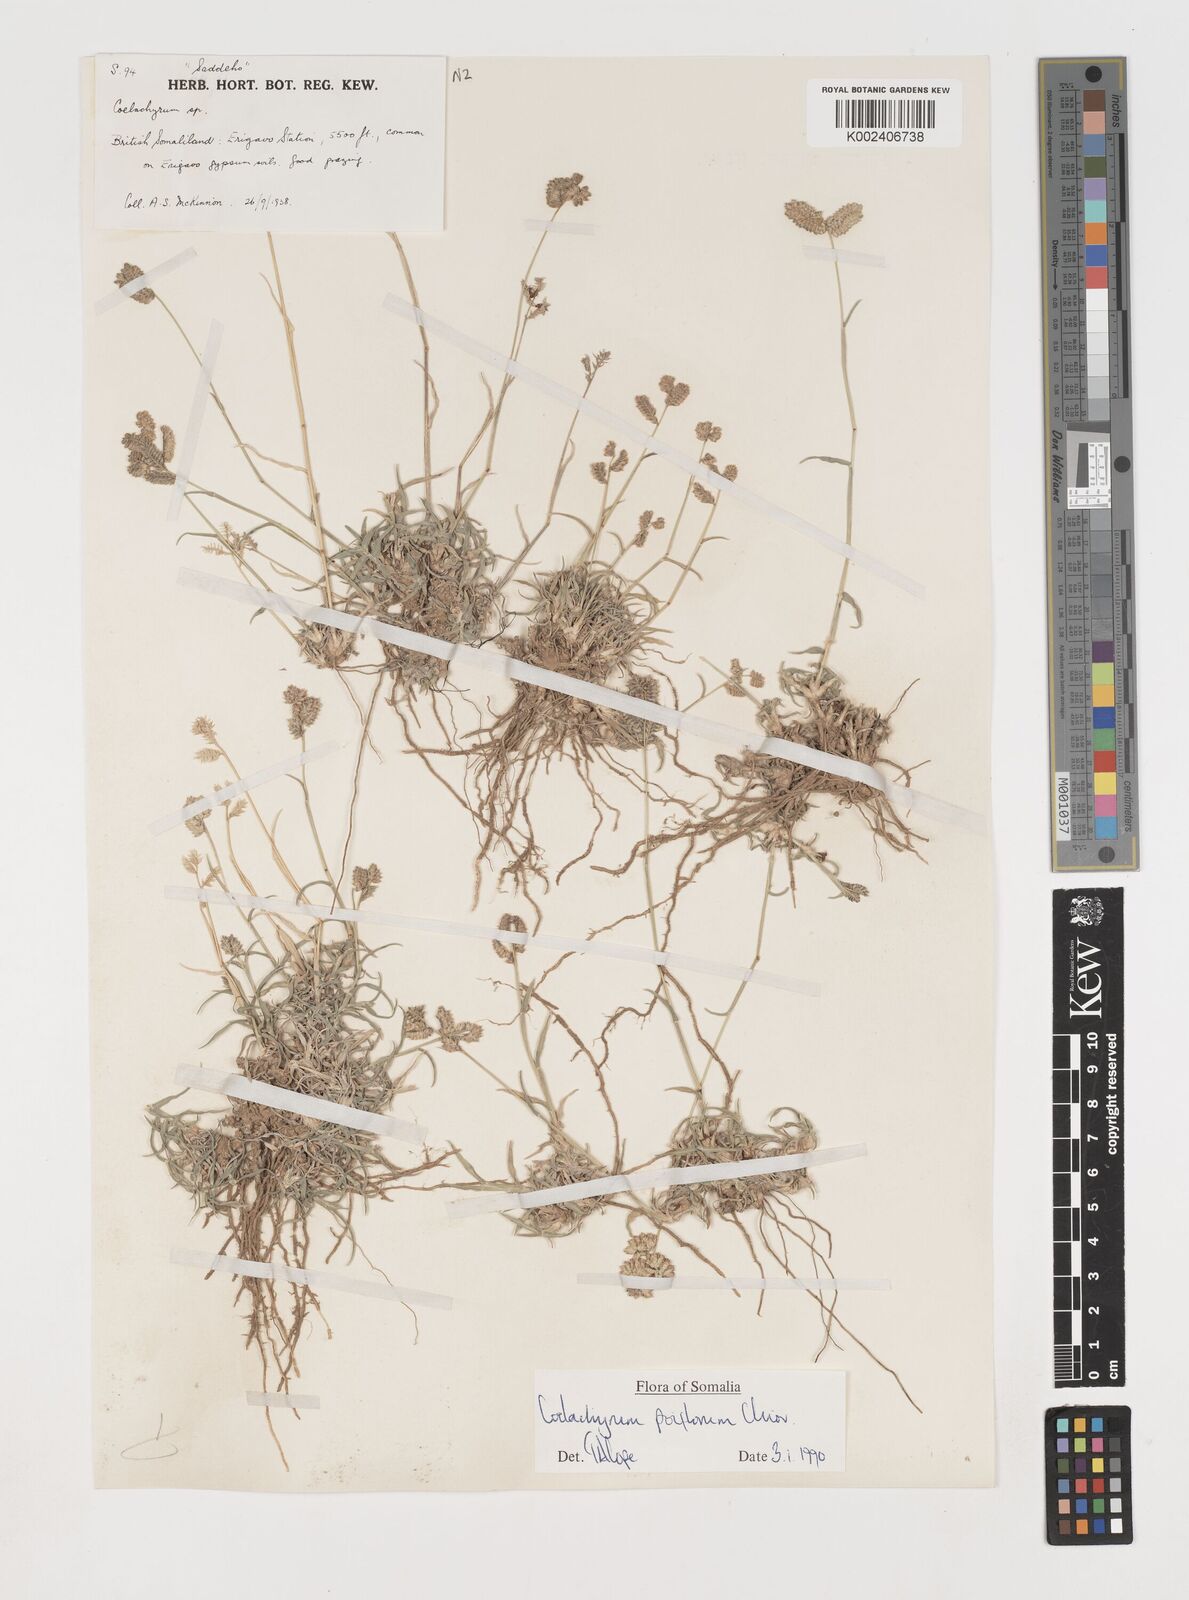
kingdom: Plantae
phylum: Tracheophyta
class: Liliopsida
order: Poales
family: Poaceae
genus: Coelachyrum
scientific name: Coelachyrum poiflorum
